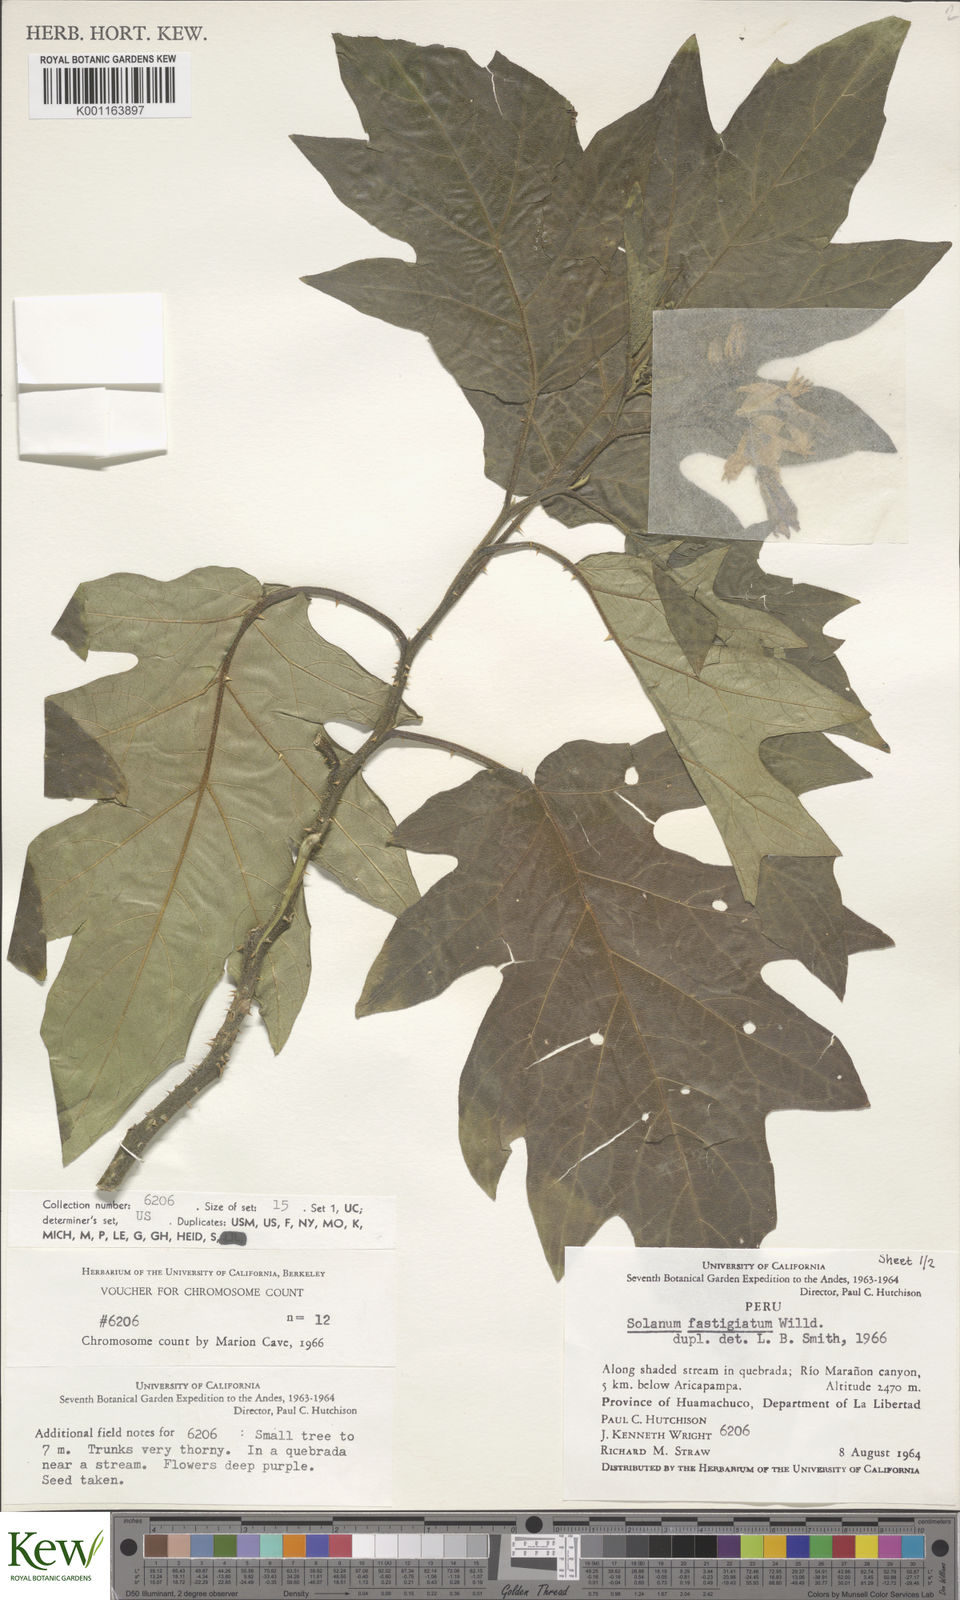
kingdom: Plantae
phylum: Tracheophyta
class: Magnoliopsida
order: Solanales
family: Solanaceae
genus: Solanum
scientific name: Solanum bonariense
